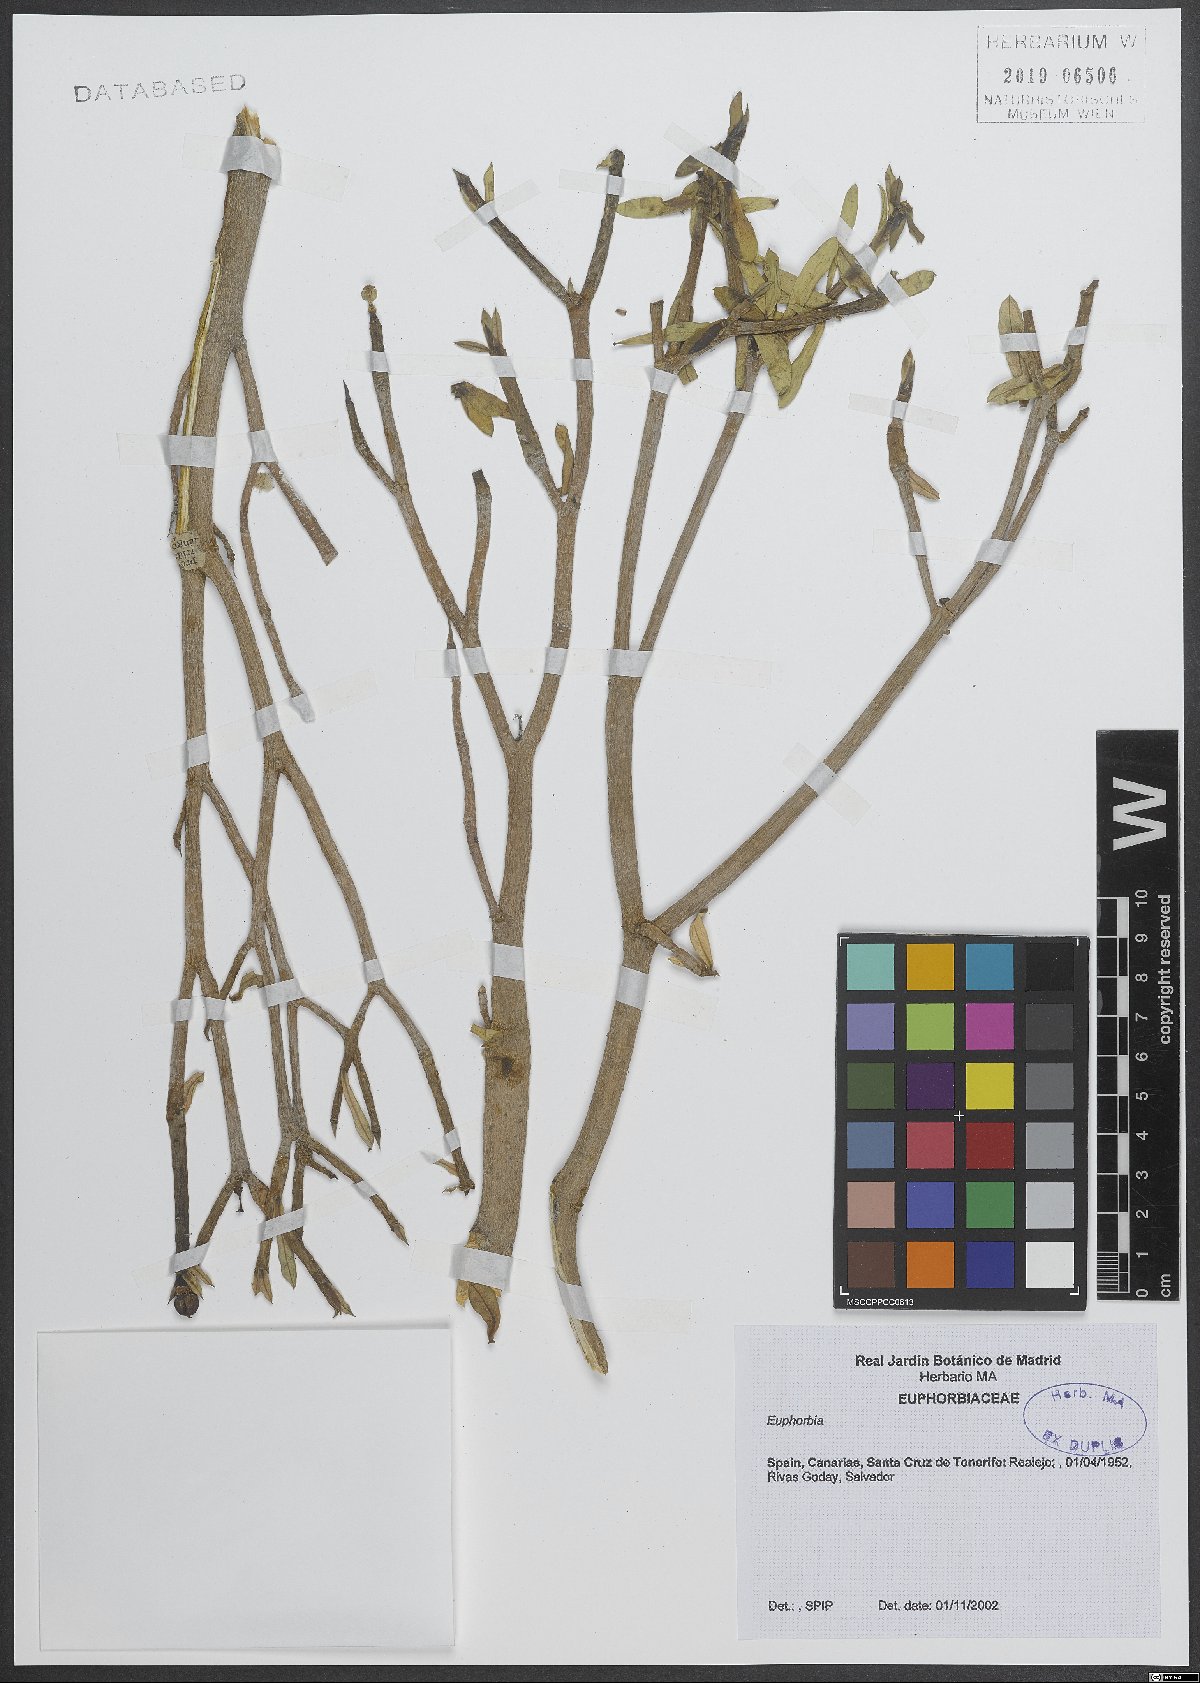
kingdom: Plantae
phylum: Tracheophyta
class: Magnoliopsida
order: Malpighiales
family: Euphorbiaceae
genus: Euphorbia
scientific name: Euphorbia
